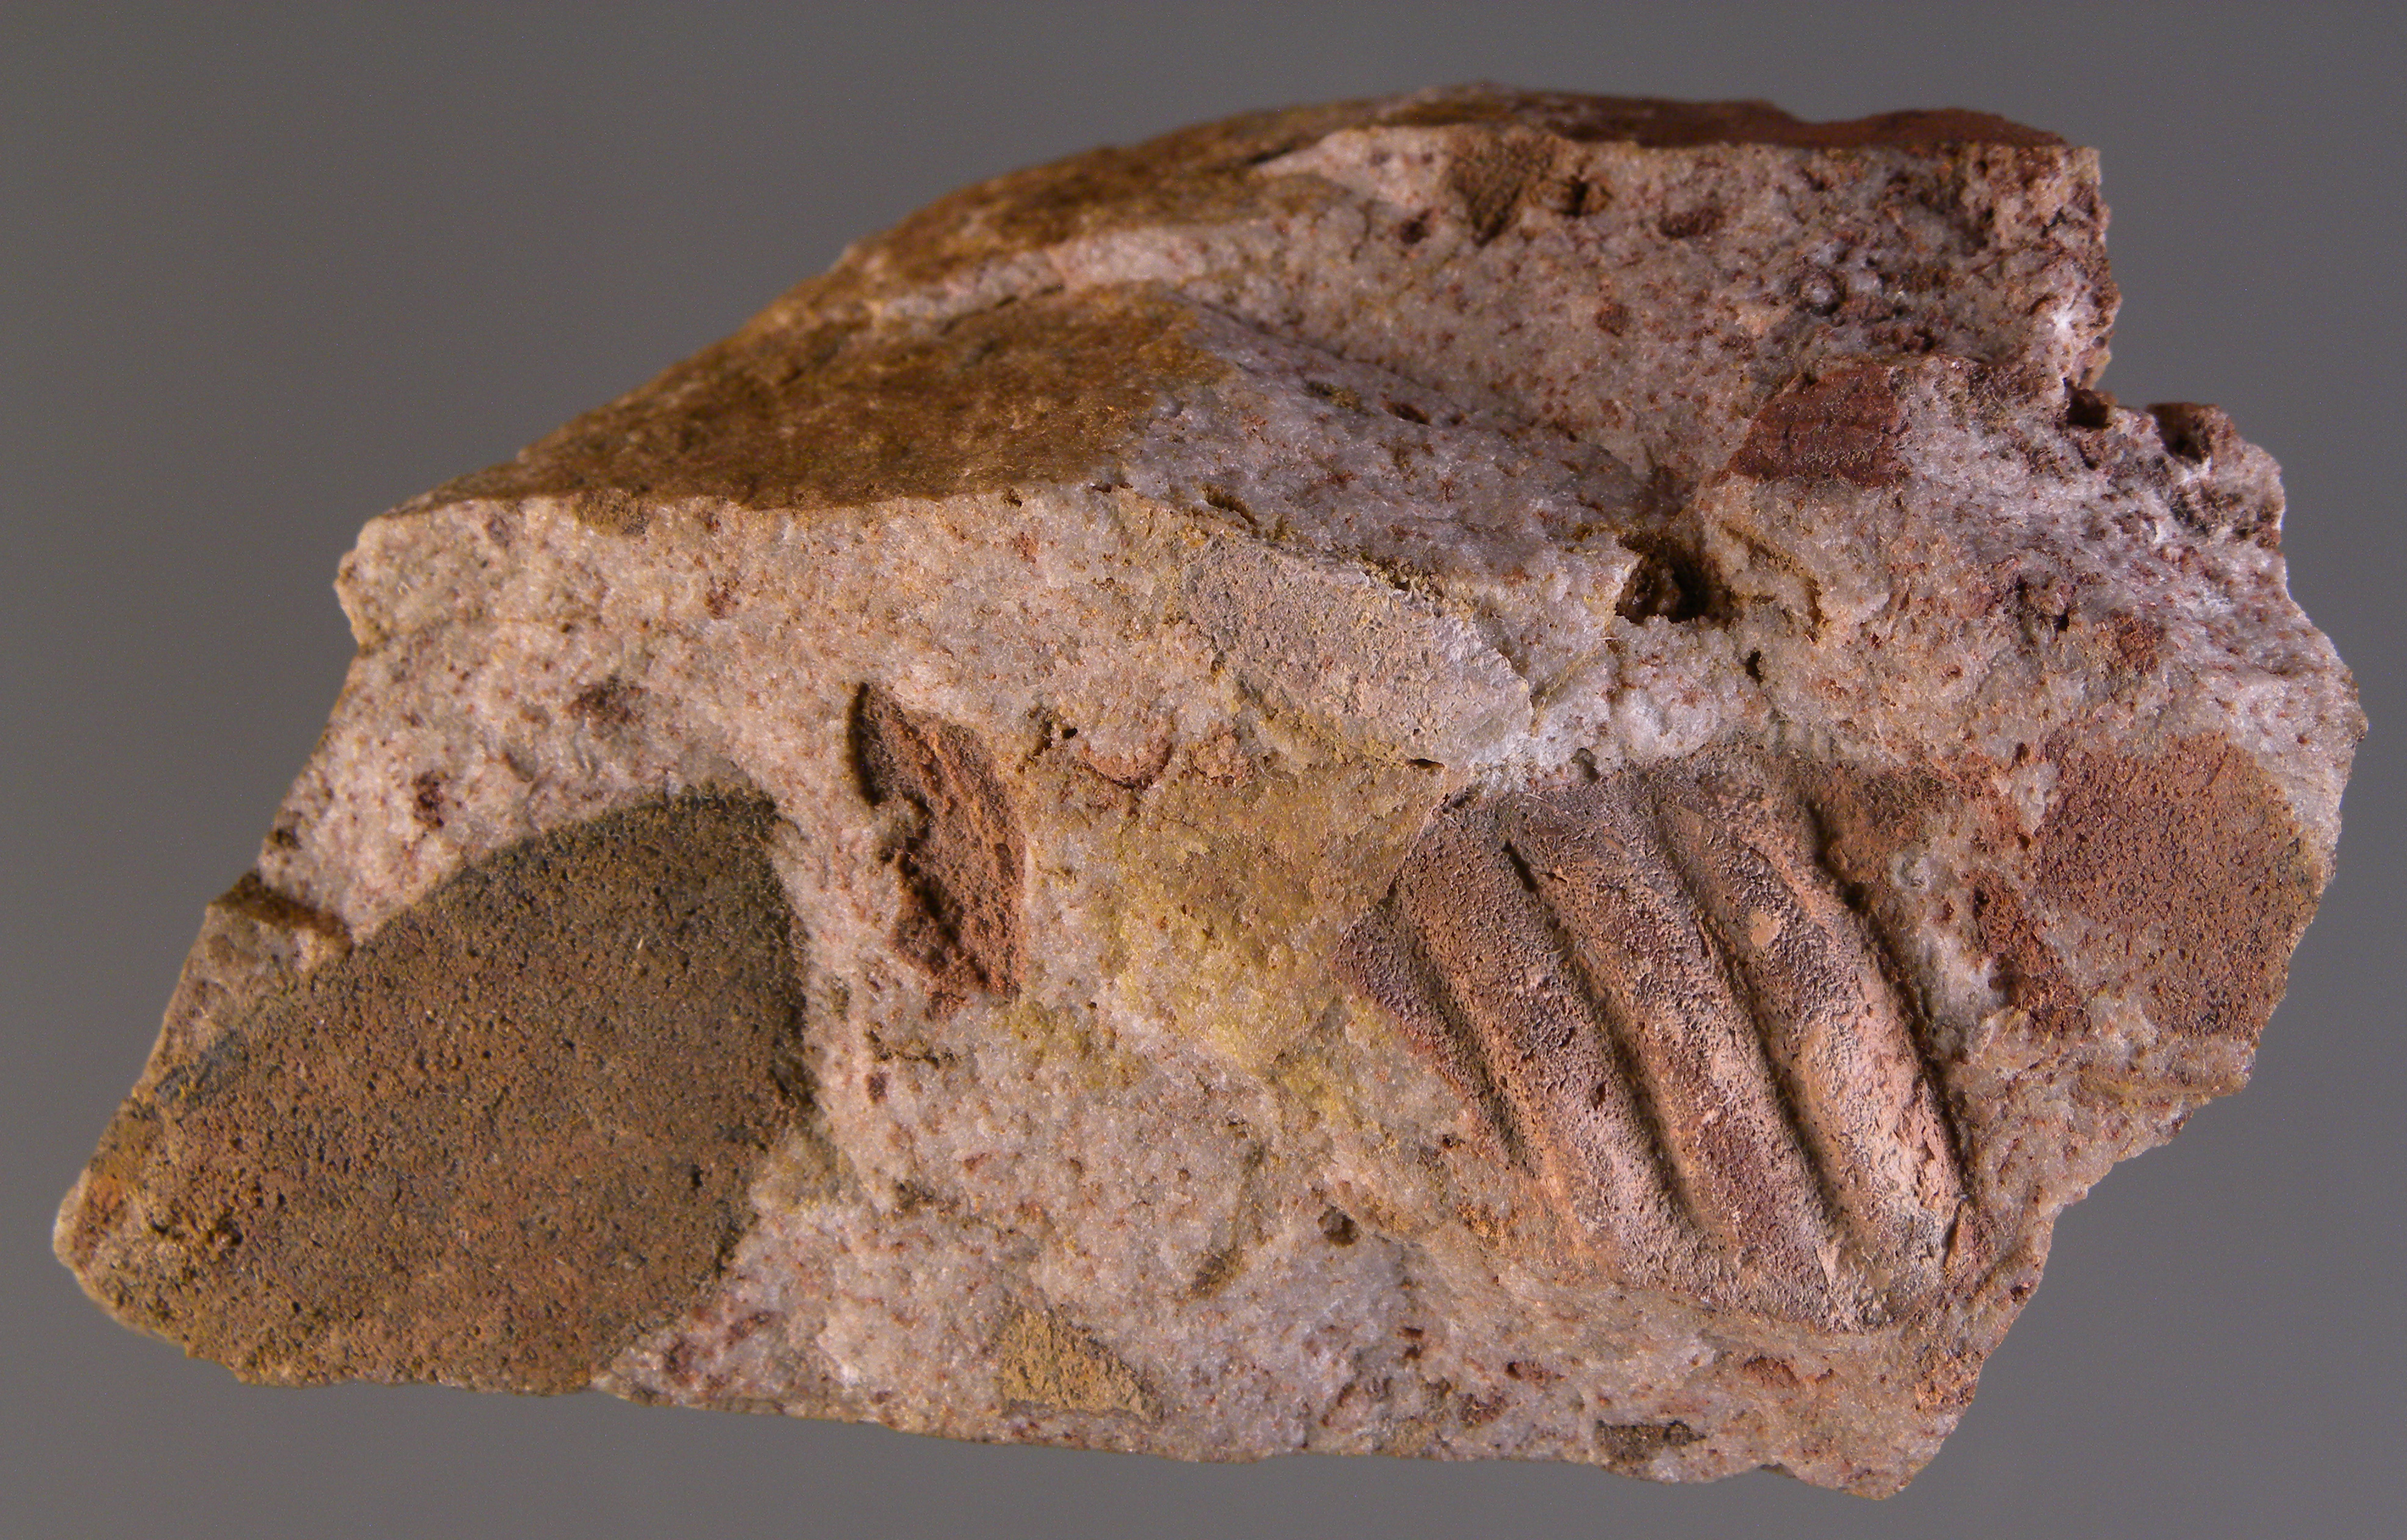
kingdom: Animalia
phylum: Arthropoda
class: Trilobita
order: Phacopida
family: Homalonotidae
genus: Digonus
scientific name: Digonus
